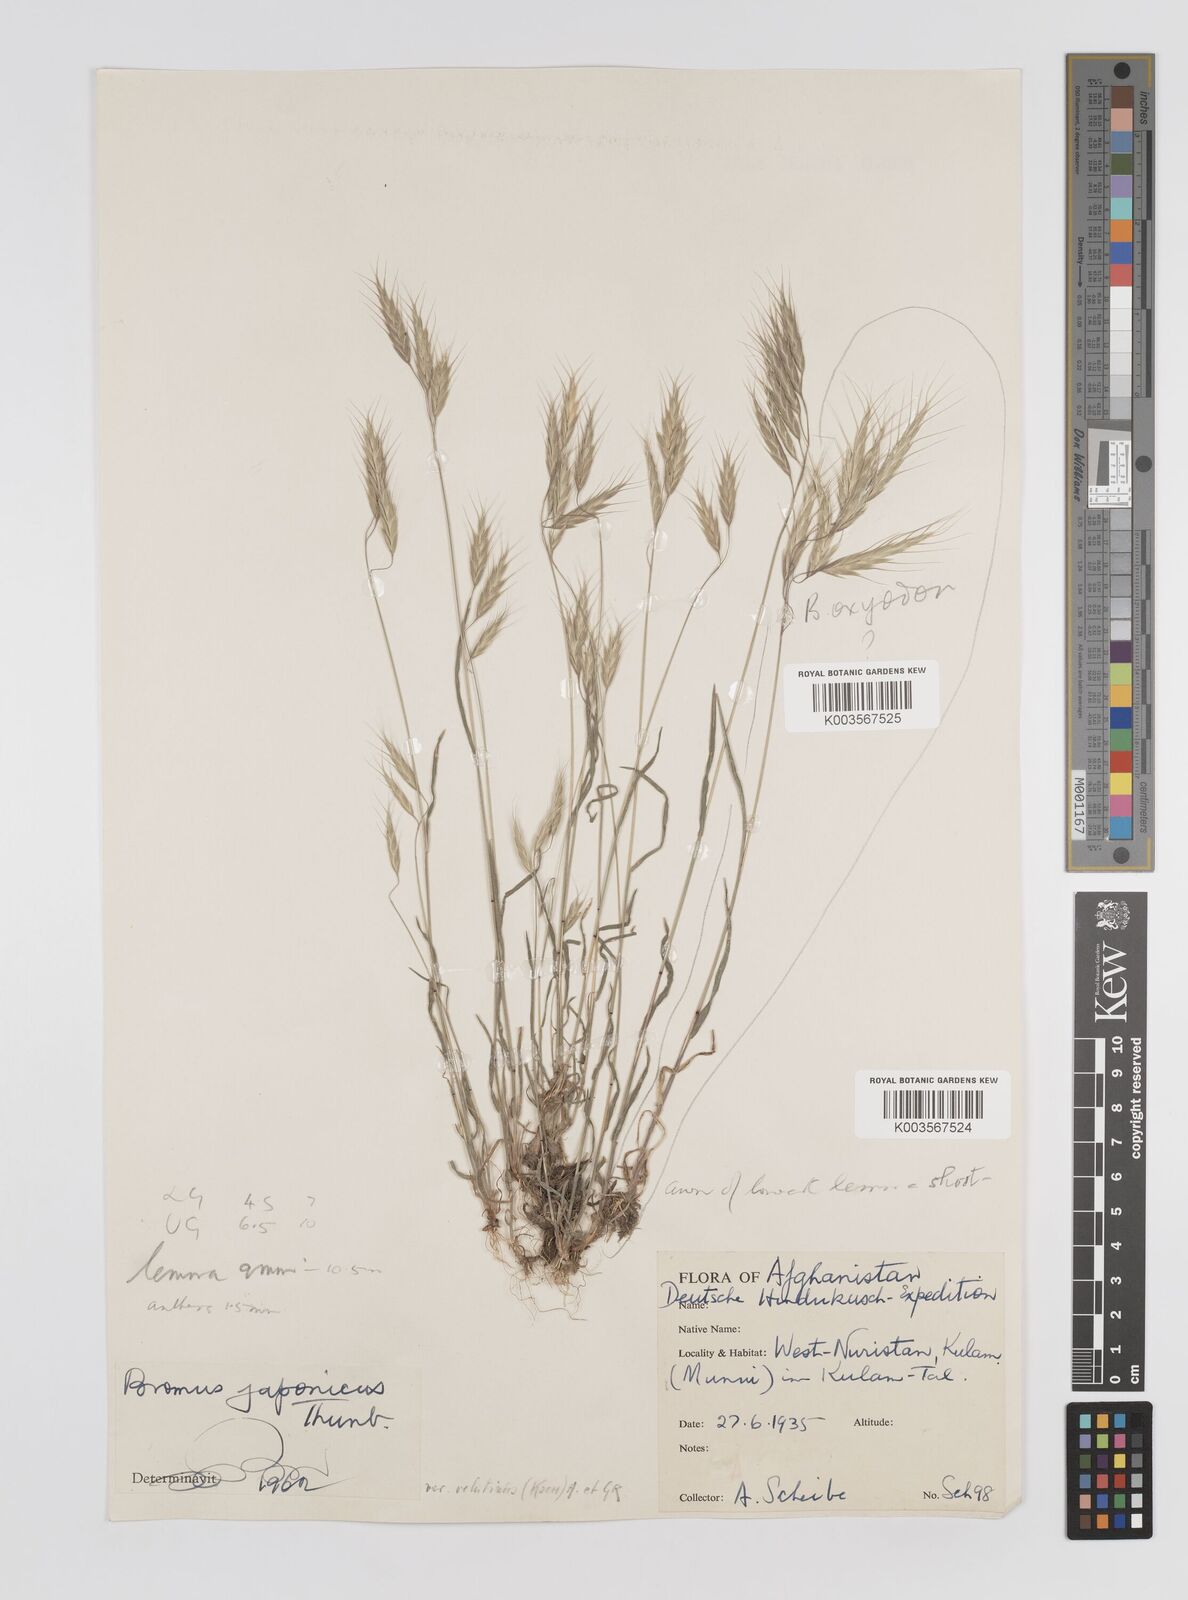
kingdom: Plantae
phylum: Tracheophyta
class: Liliopsida
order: Poales
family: Poaceae
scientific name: Poaceae
